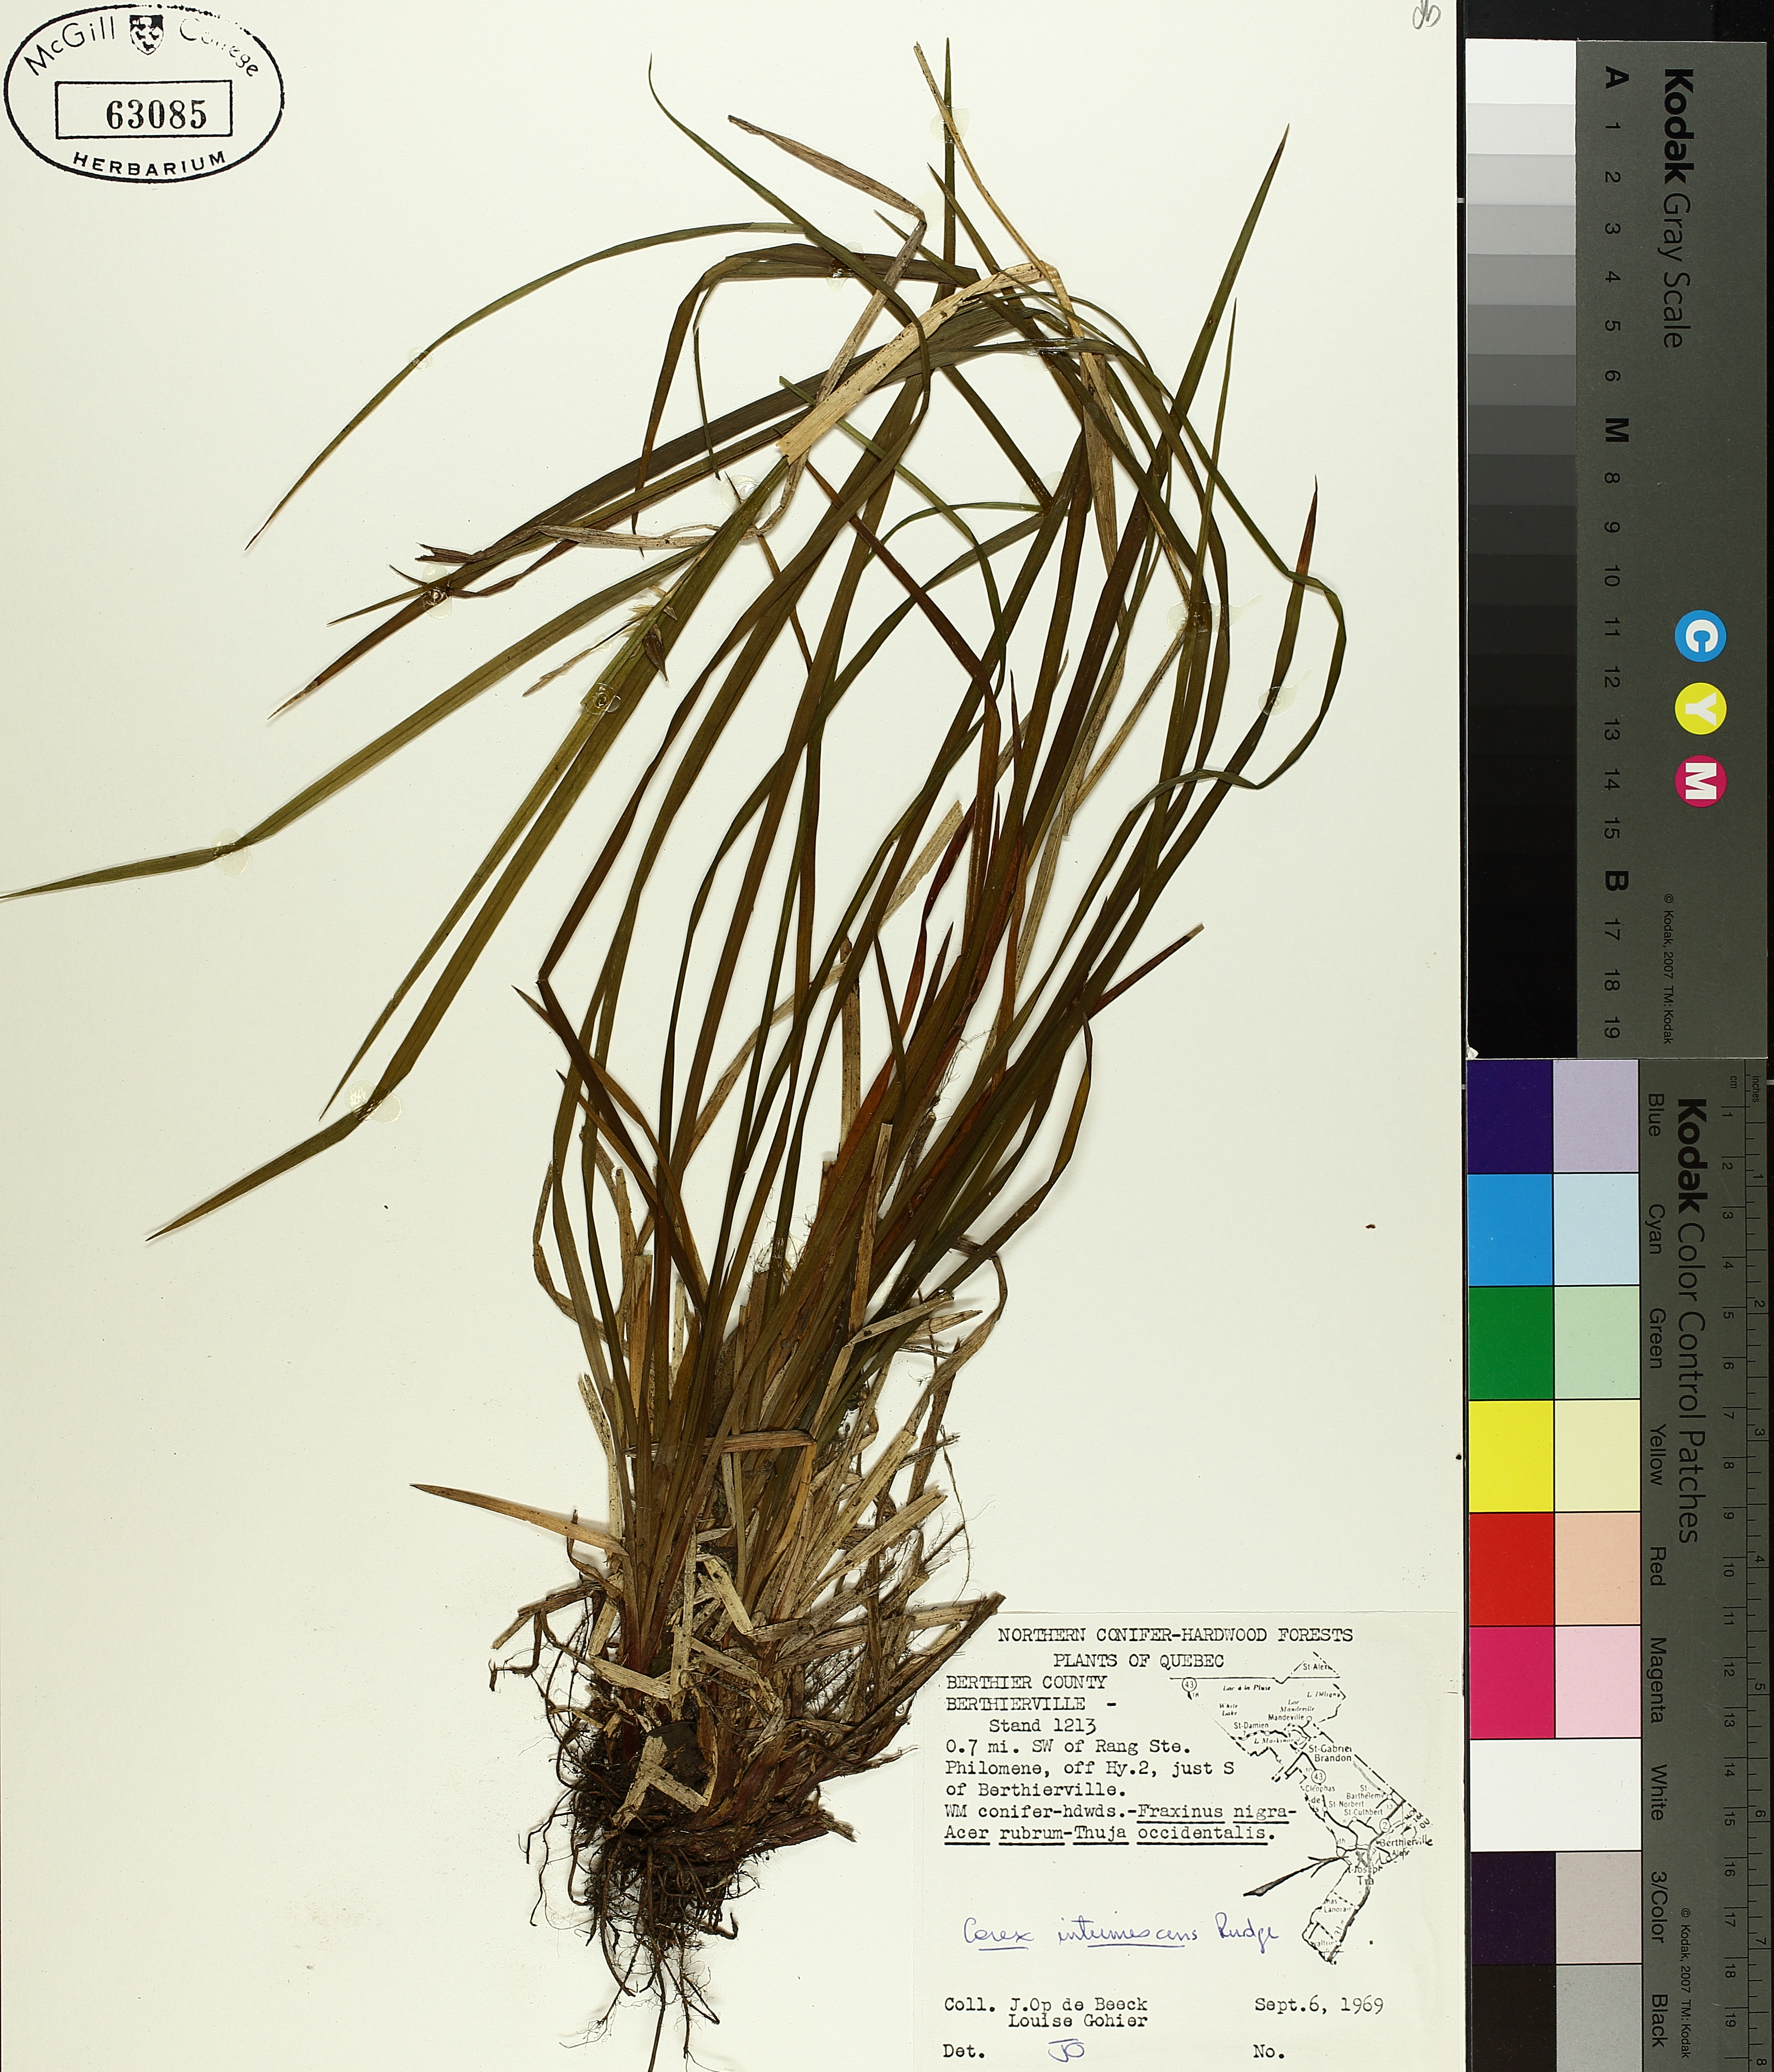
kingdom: Plantae
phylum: Tracheophyta
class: Liliopsida
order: Poales
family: Cyperaceae
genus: Carex
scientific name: Carex intumescens
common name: Greater bladder sedge
